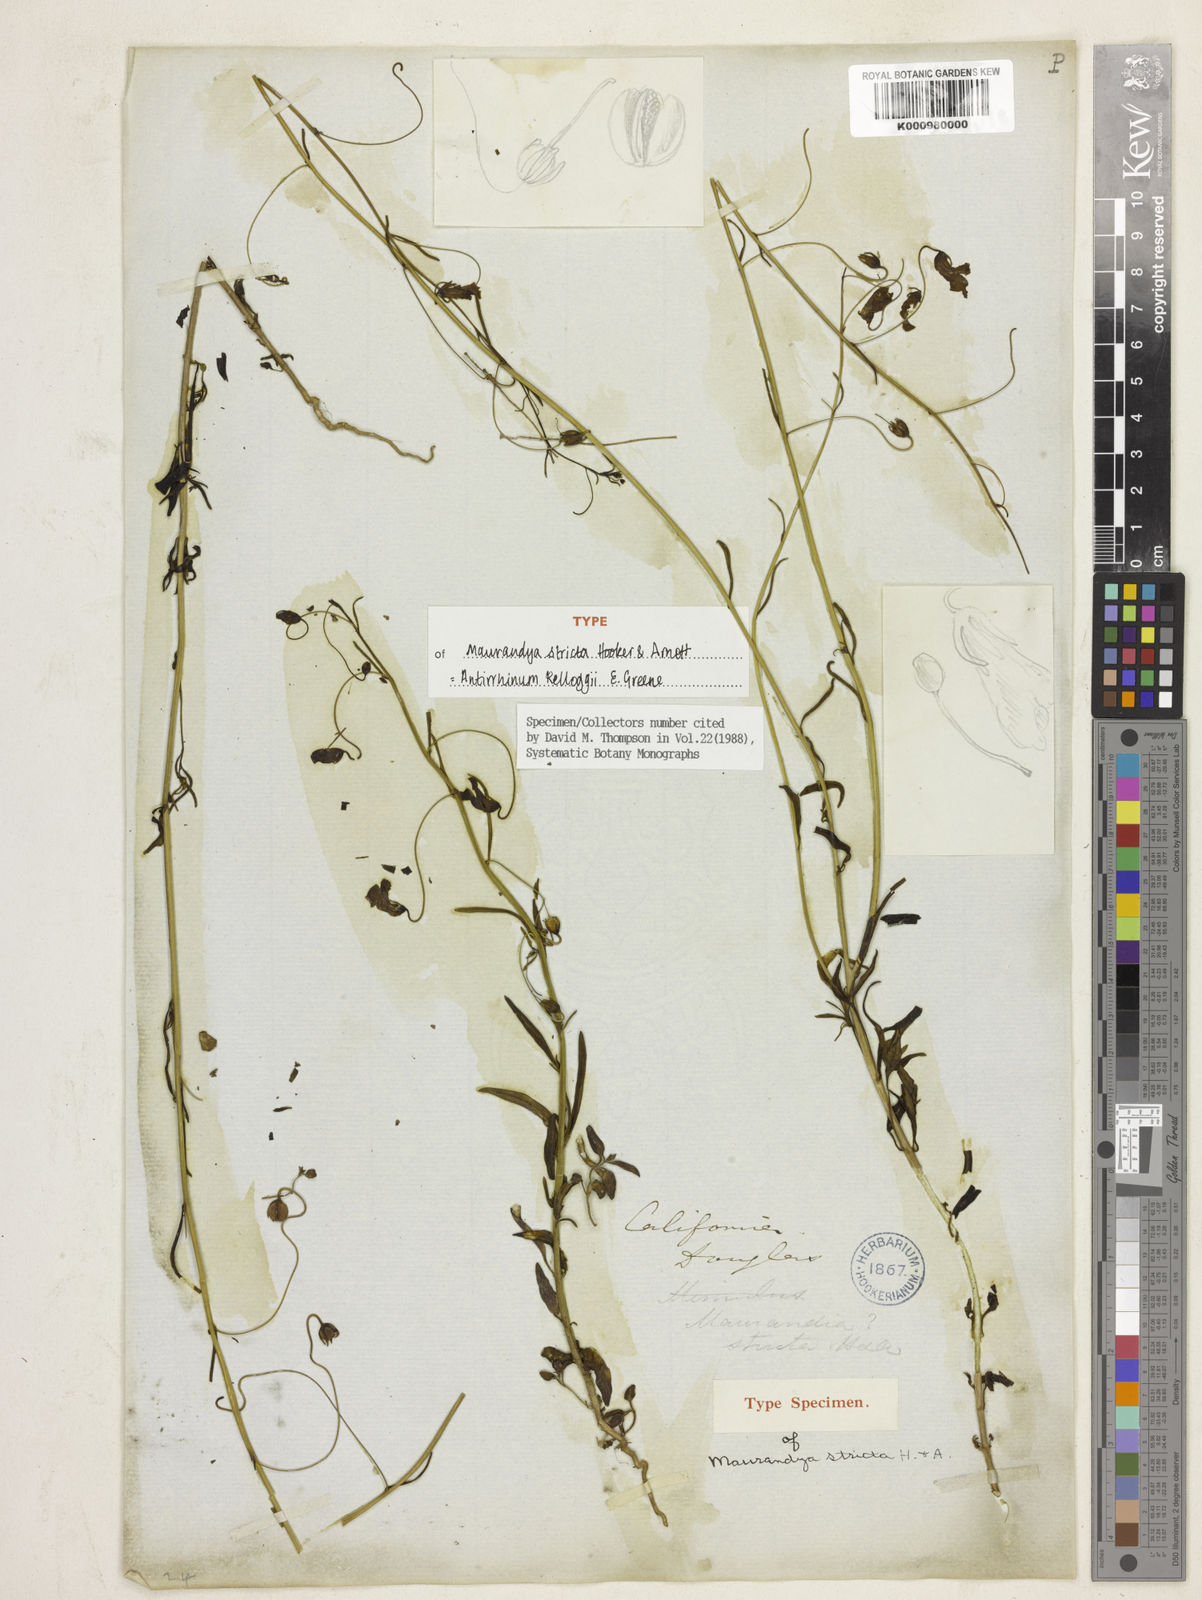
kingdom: Plantae
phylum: Tracheophyta
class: Magnoliopsida
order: Lamiales
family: Plantaginaceae
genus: Linaria
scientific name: Linaria peloponnesiaca
